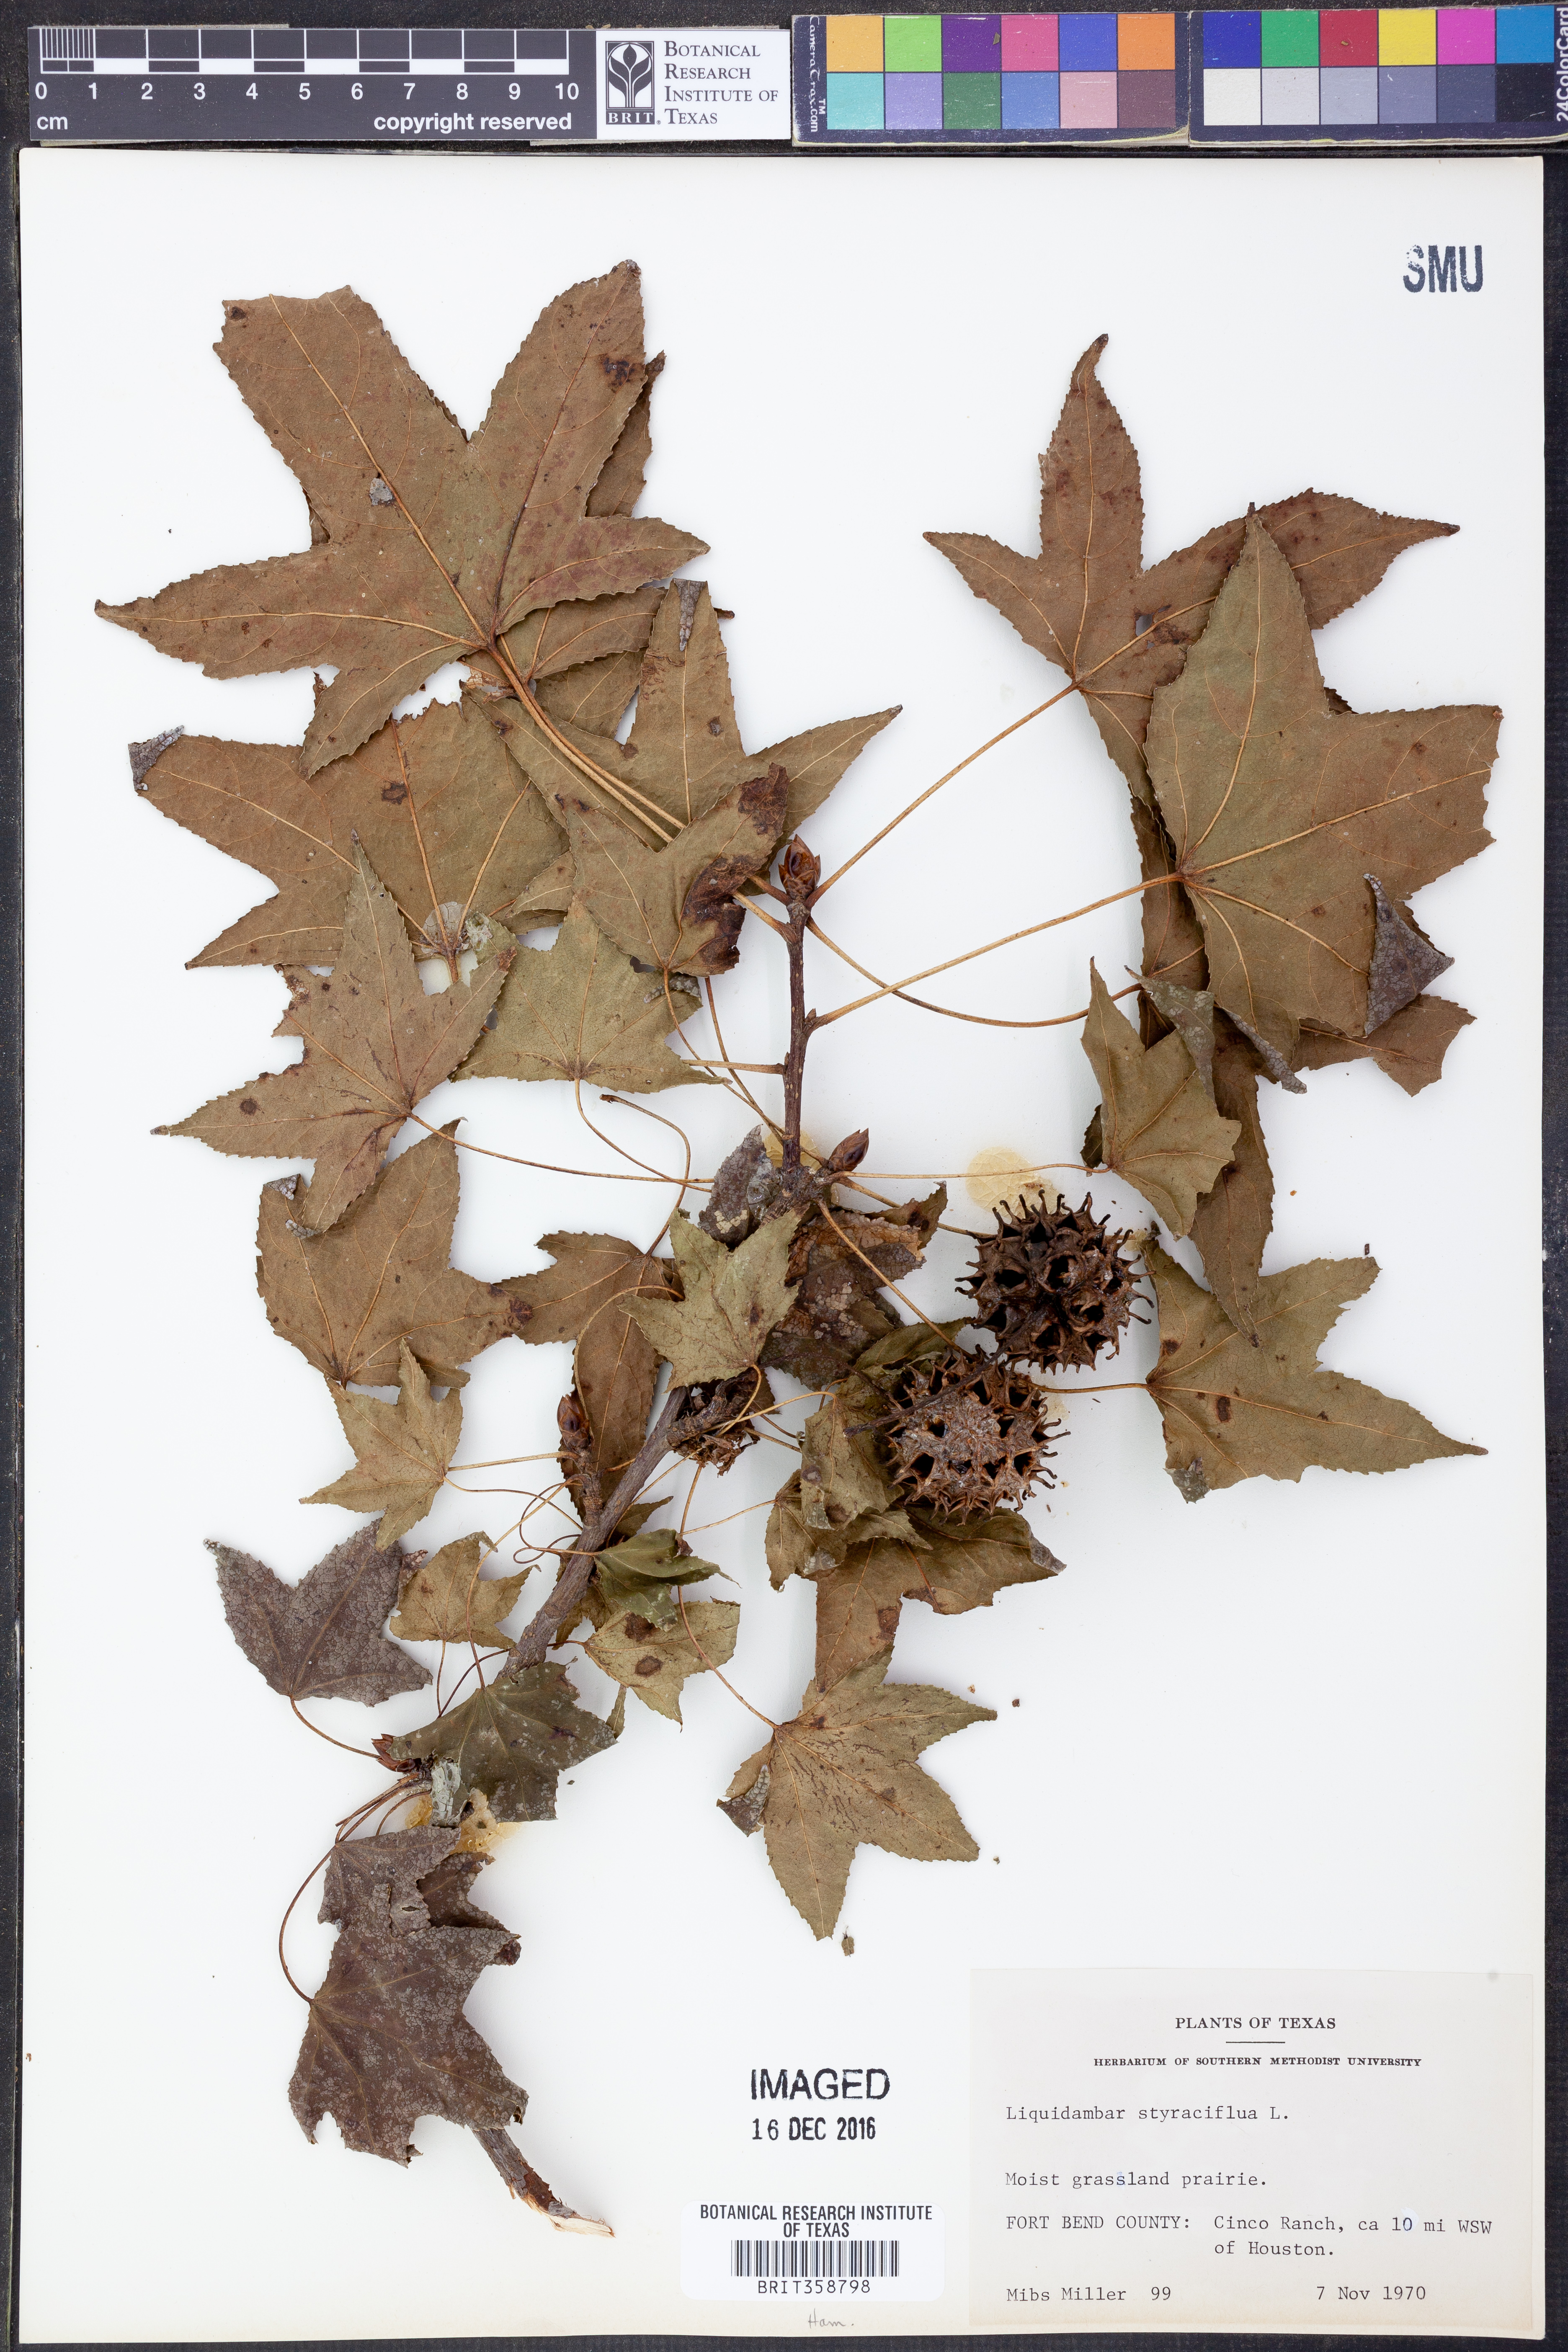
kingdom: Plantae
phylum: Tracheophyta
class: Magnoliopsida
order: Saxifragales
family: Altingiaceae
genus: Liquidambar
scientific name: Liquidambar styraciflua
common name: Sweet gum
